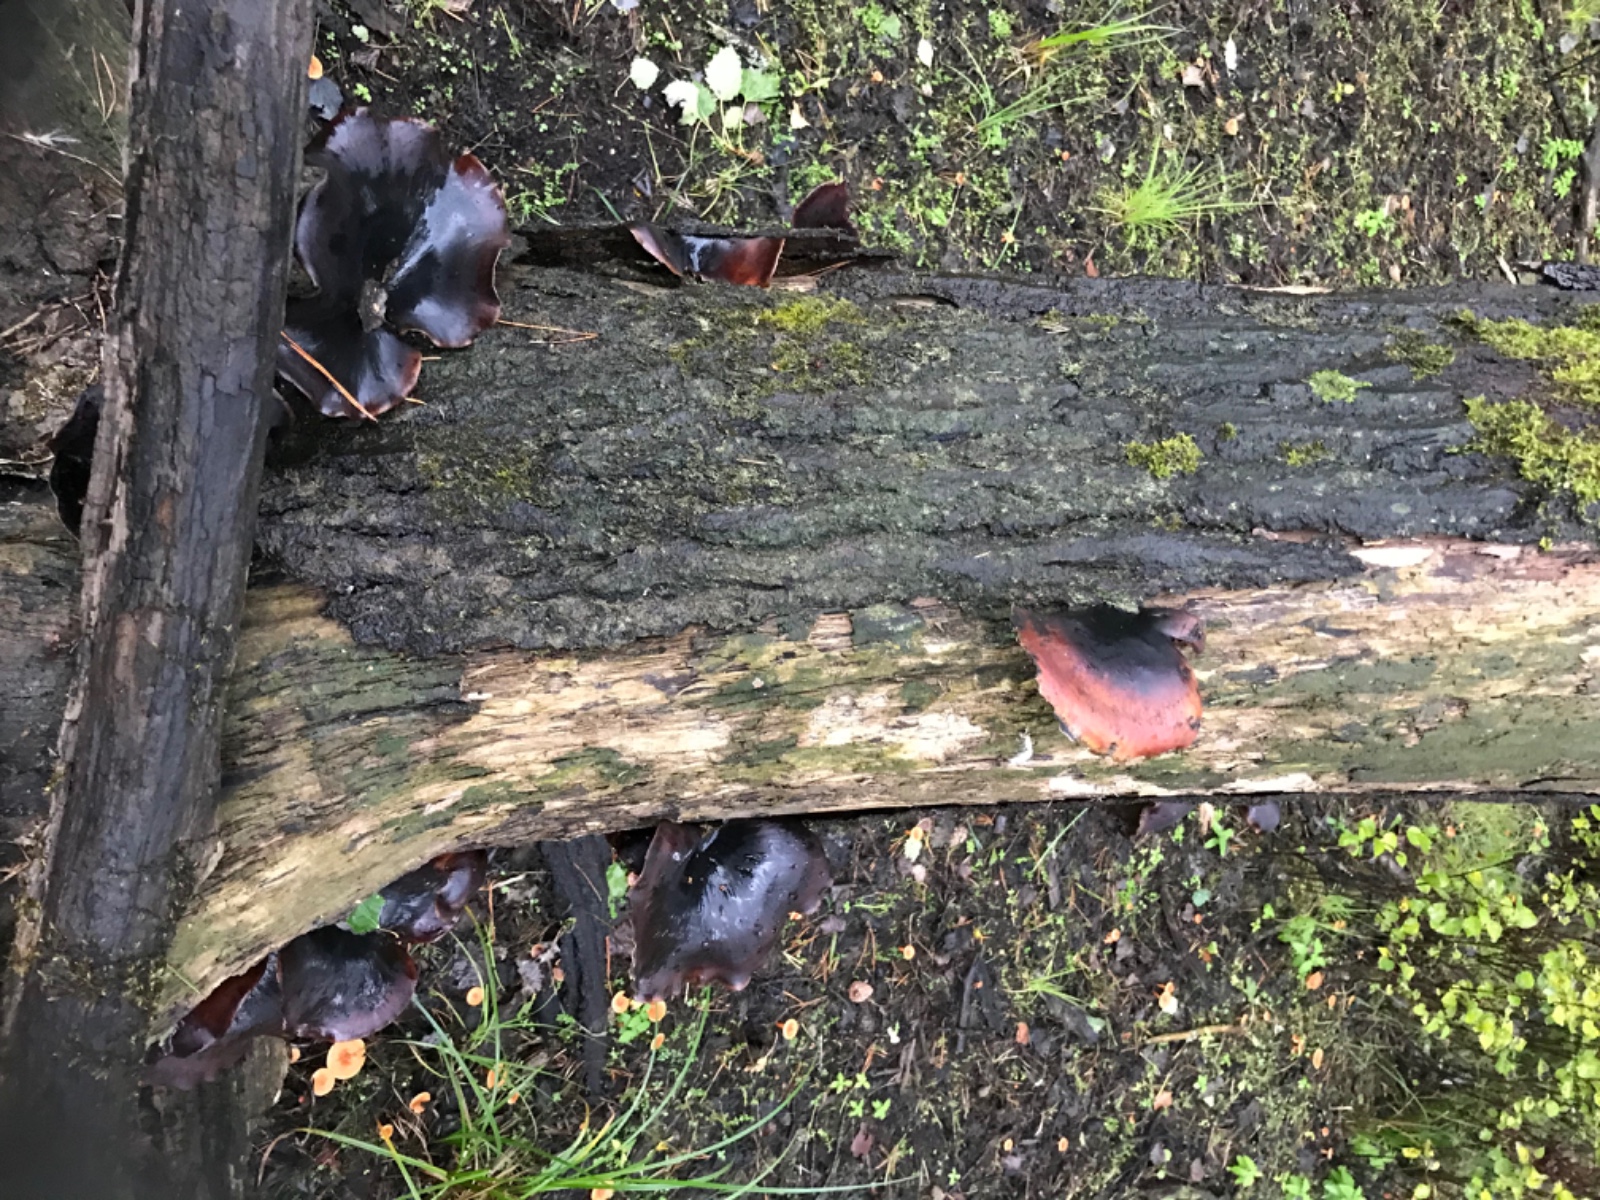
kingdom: Fungi
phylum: Basidiomycota
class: Agaricomycetes
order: Polyporales
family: Polyporaceae
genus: Picipes
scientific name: Picipes badius
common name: kastaniebrun stilkporesvamp
